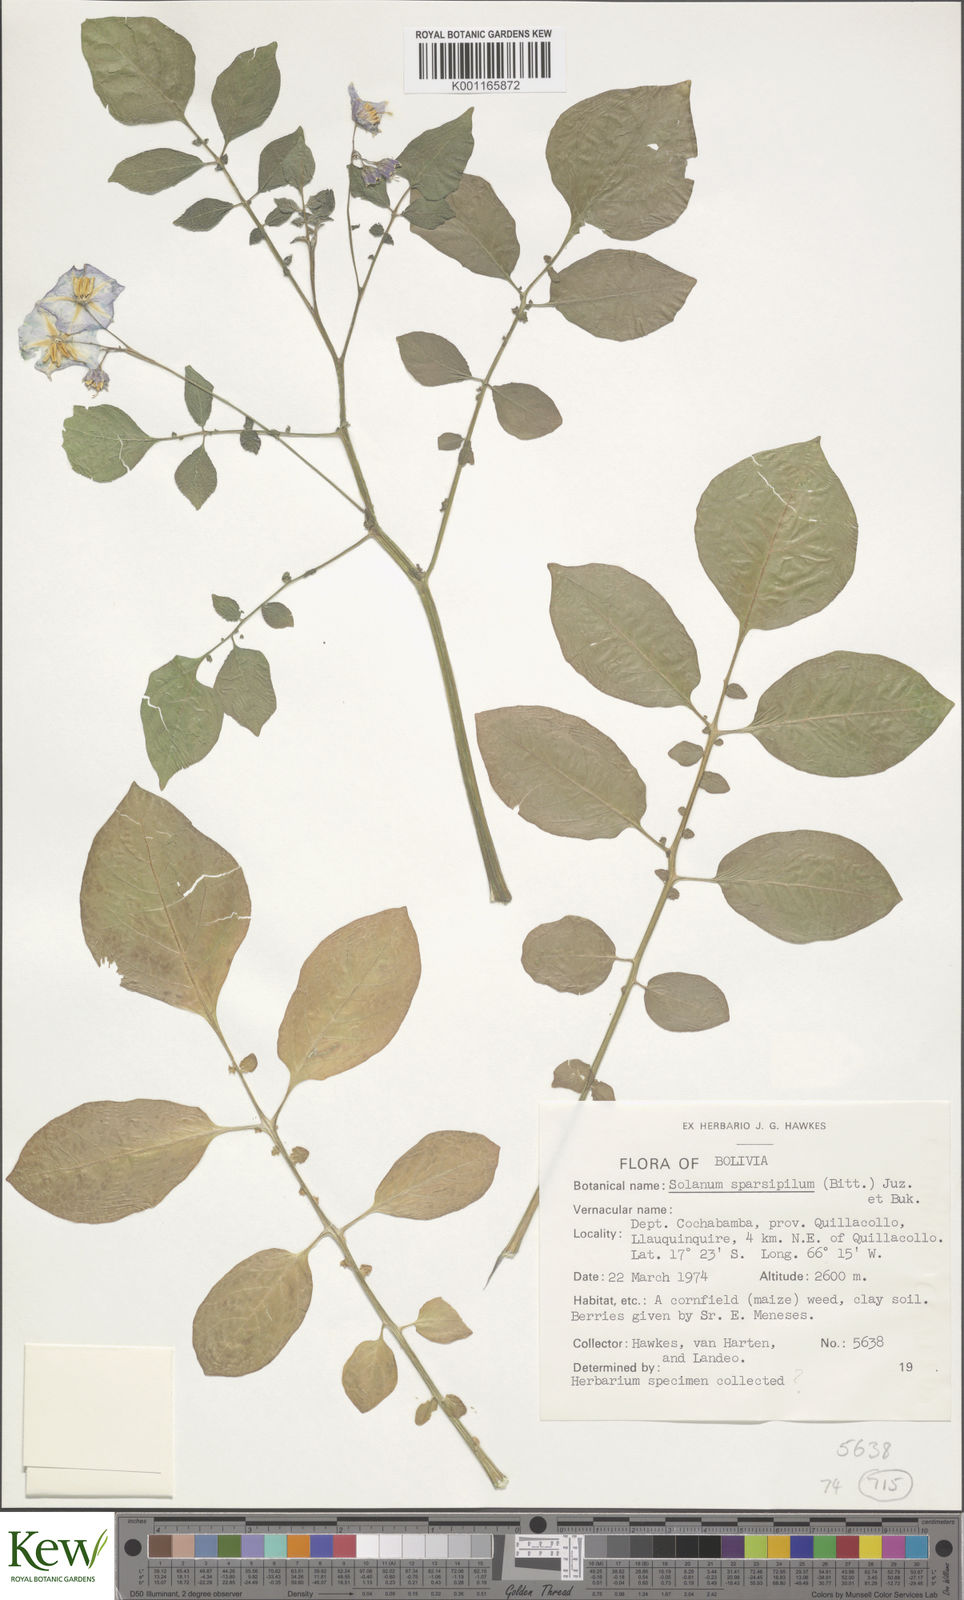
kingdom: Plantae
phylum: Tracheophyta
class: Magnoliopsida
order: Solanales
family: Solanaceae
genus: Solanum
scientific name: Solanum brevicaule
